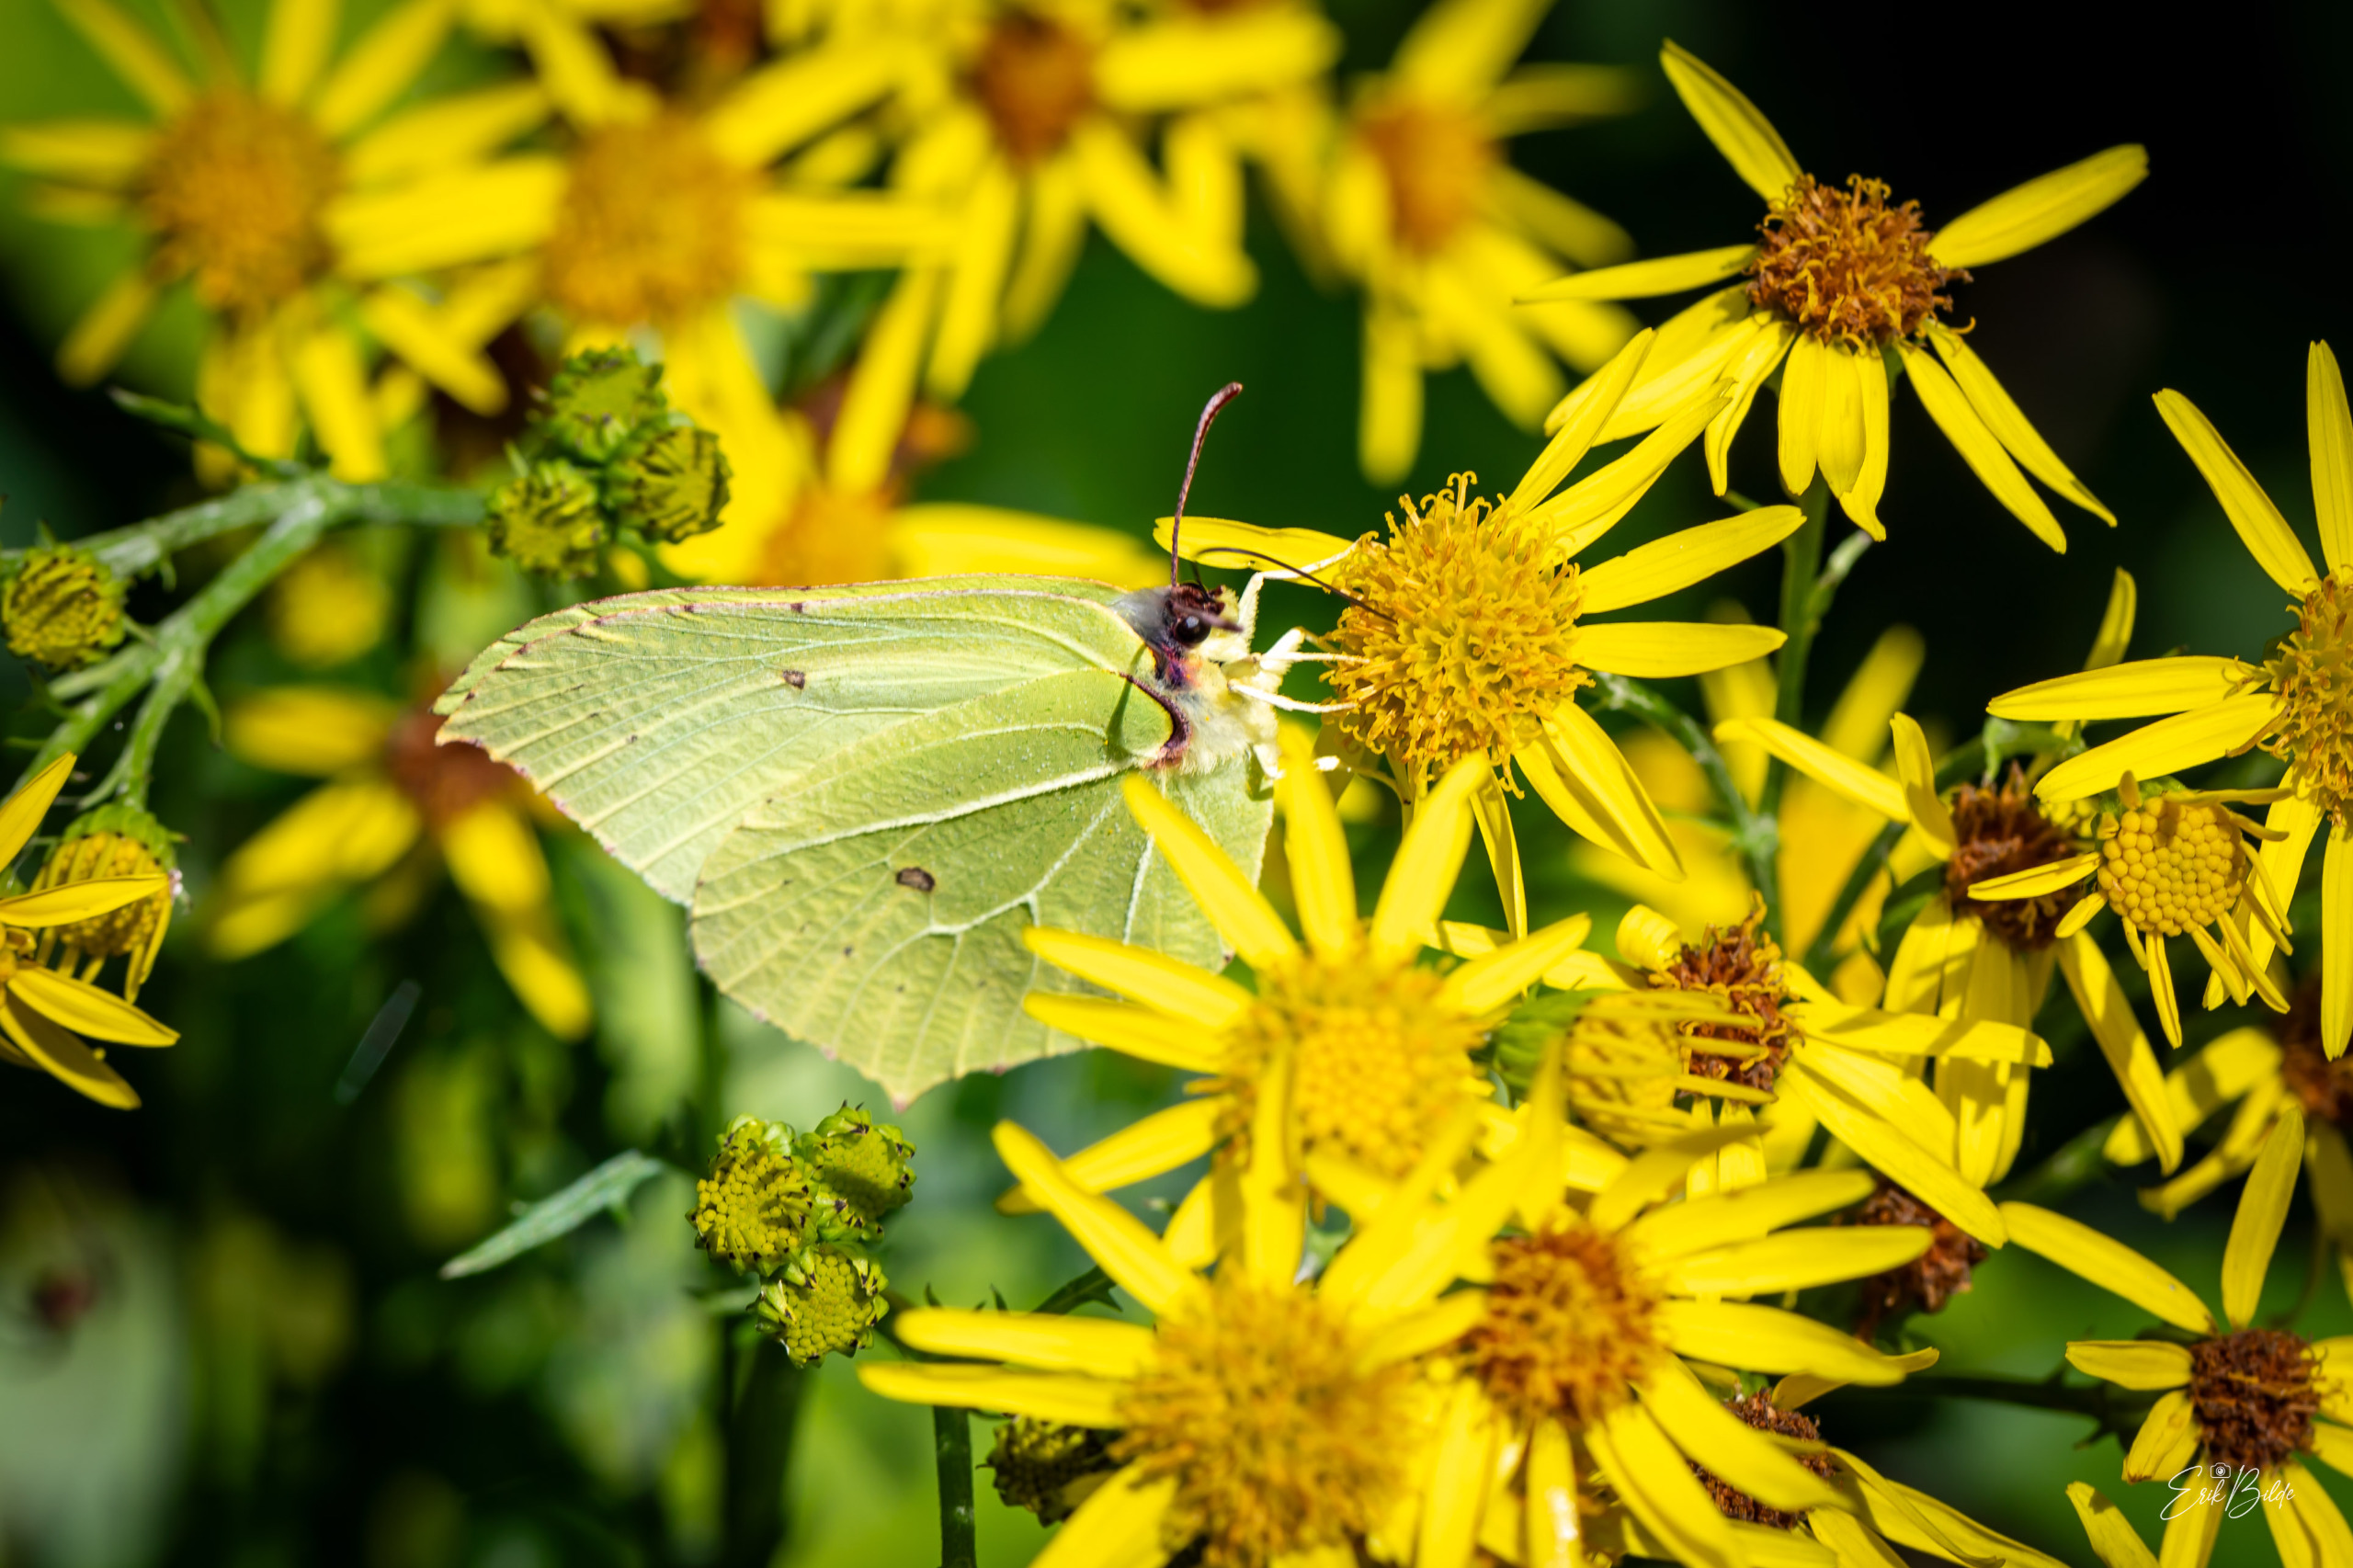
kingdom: Animalia
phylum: Arthropoda
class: Insecta
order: Lepidoptera
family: Pieridae
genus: Gonepteryx
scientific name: Gonepteryx rhamni
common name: Citronsommerfugl
